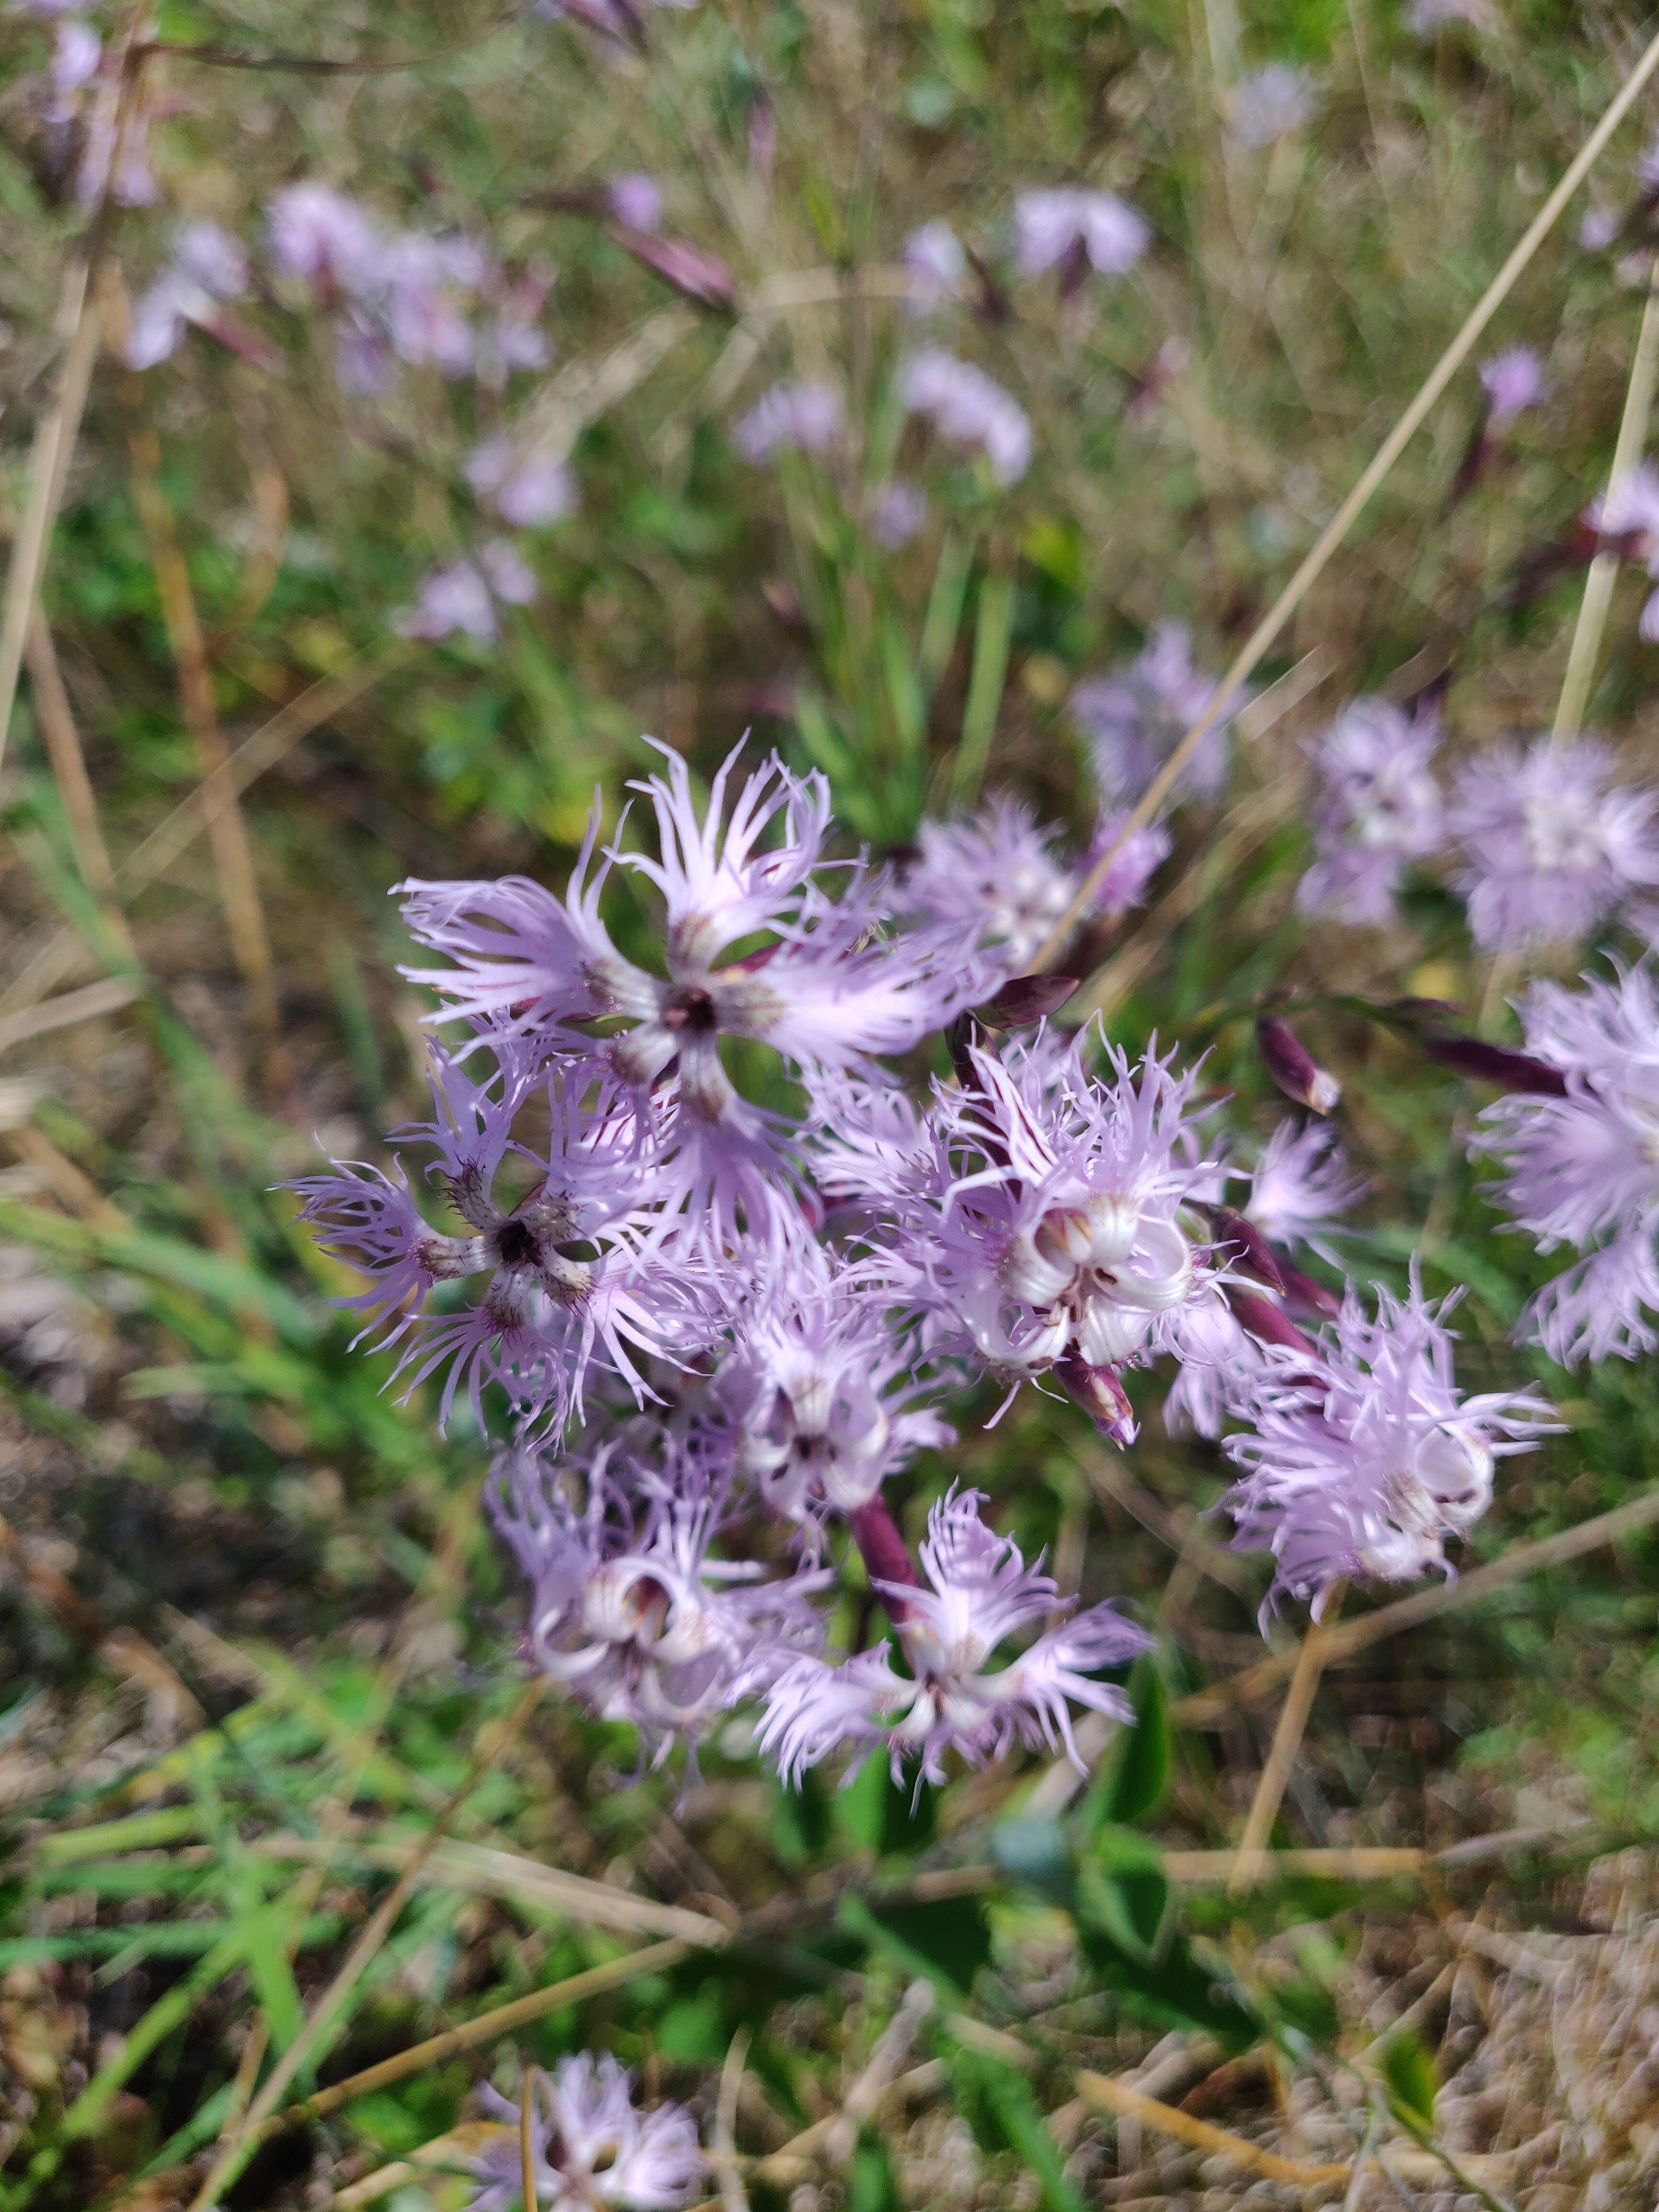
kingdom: Plantae
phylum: Tracheophyta
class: Magnoliopsida
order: Caryophyllales
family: Caryophyllaceae
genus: Dianthus
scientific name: Dianthus superbus
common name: Strand-nellike
